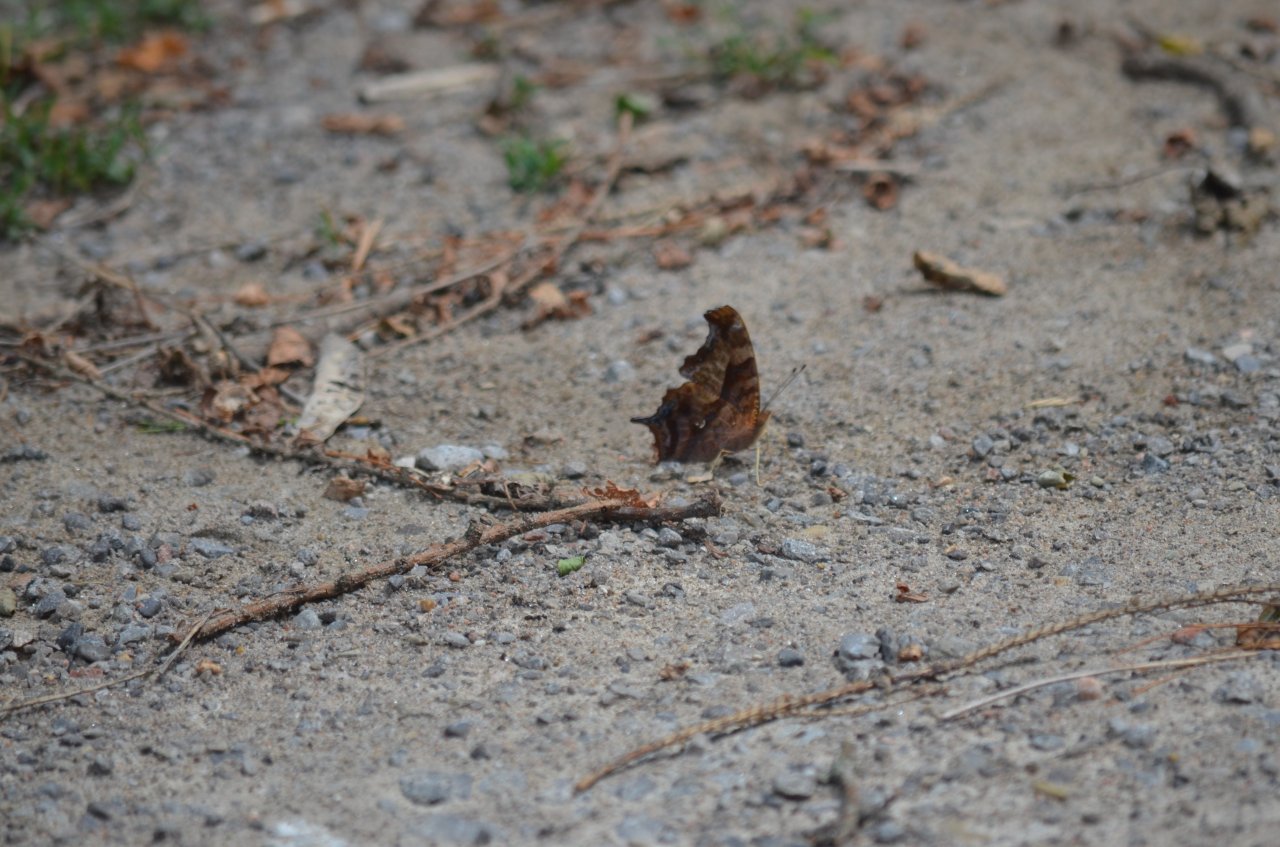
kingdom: Animalia
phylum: Arthropoda
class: Insecta
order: Lepidoptera
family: Nymphalidae
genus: Polygonia
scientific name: Polygonia interrogationis
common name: Question Mark
